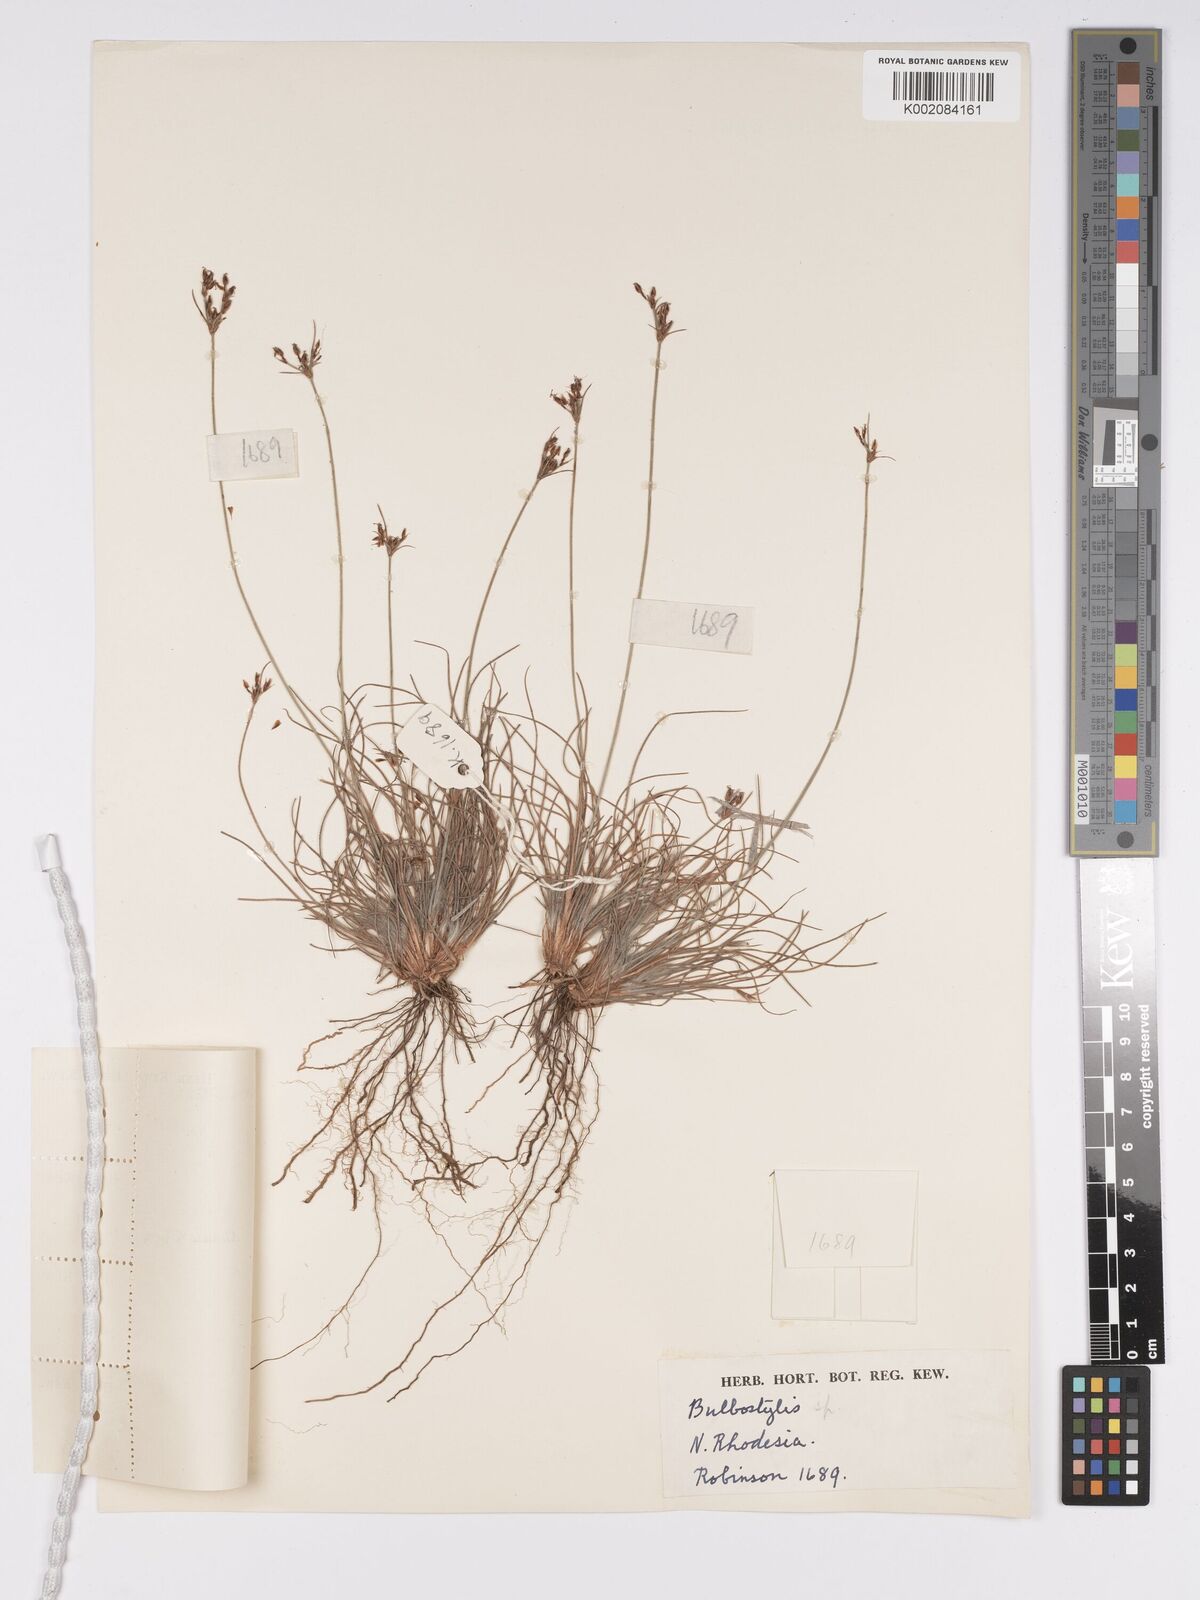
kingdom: Plantae
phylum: Tracheophyta
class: Liliopsida
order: Poales
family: Cyperaceae
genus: Bulbostylis
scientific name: Bulbostylis
